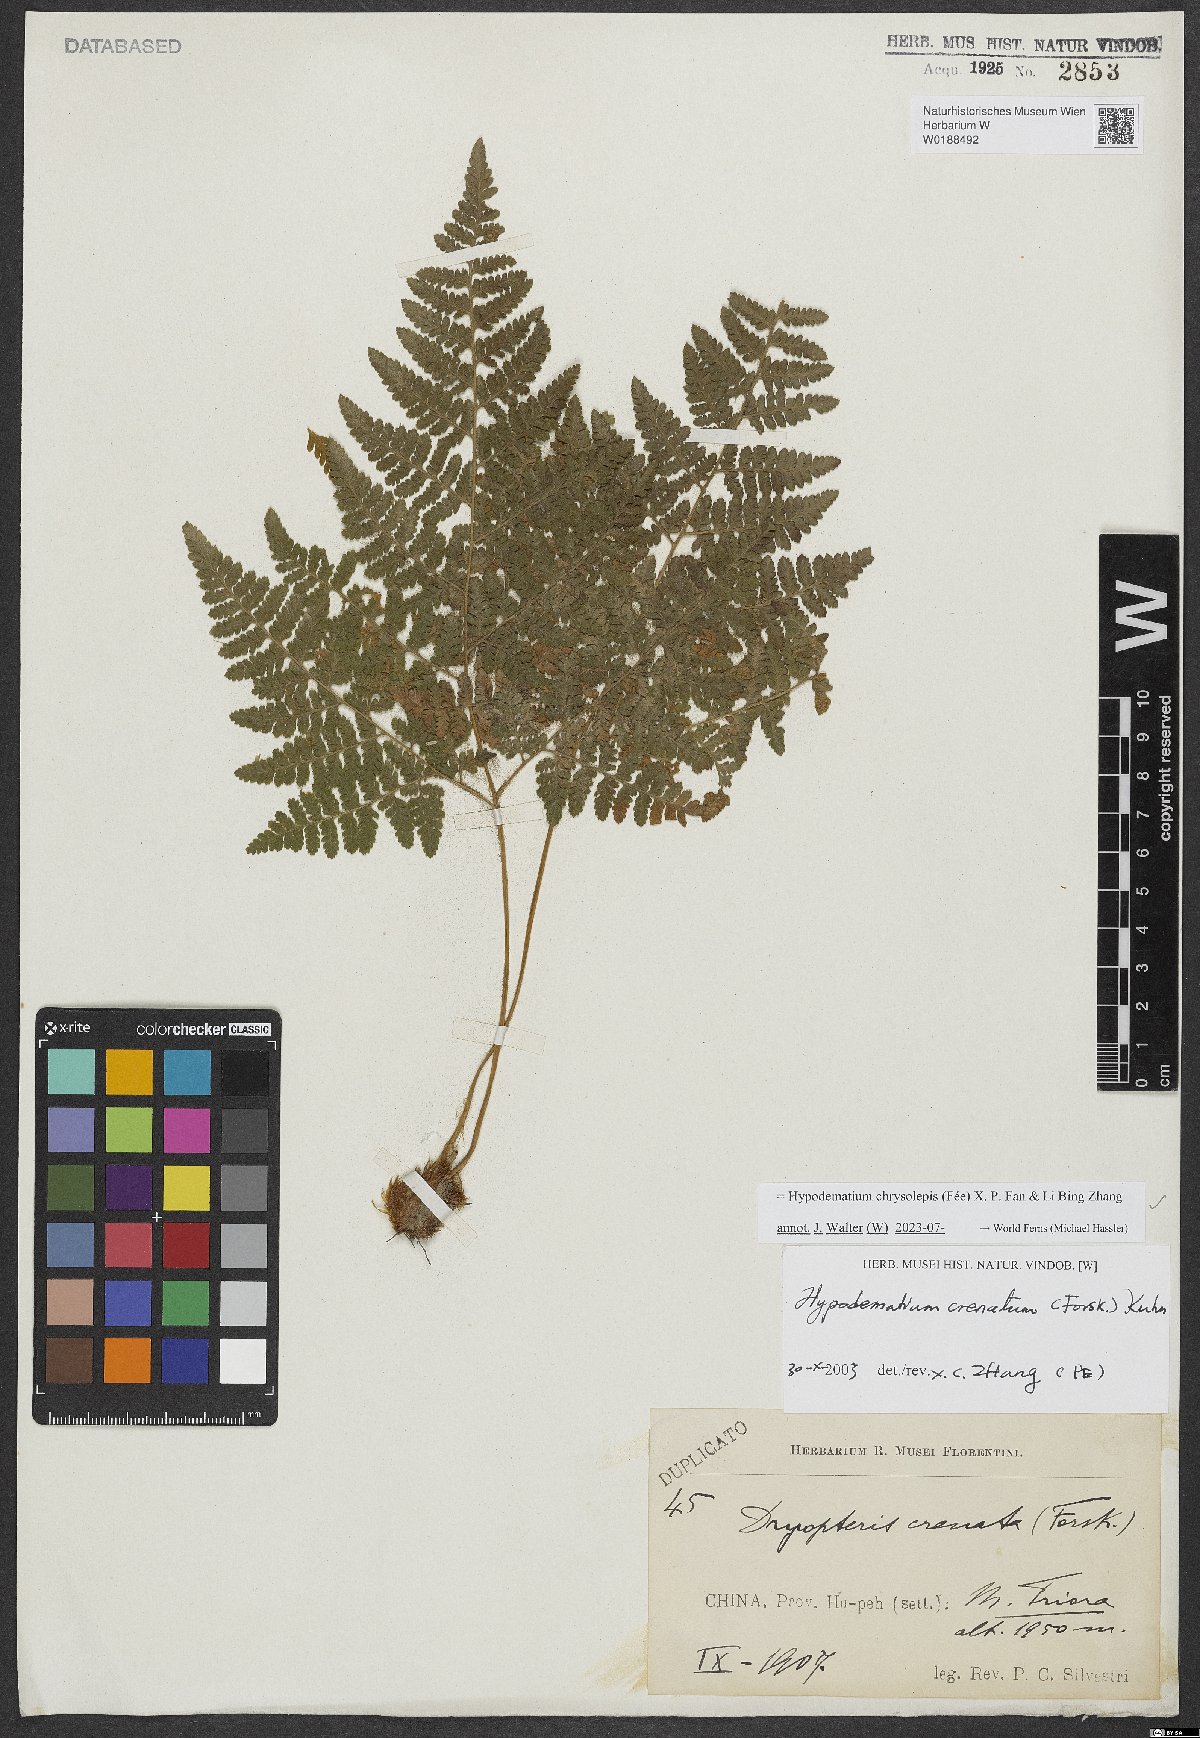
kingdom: Plantae
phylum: Tracheophyta
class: Polypodiopsida
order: Polypodiales
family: Hypodematiaceae
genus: Hypodematium
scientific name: Hypodematium chrysolepis
